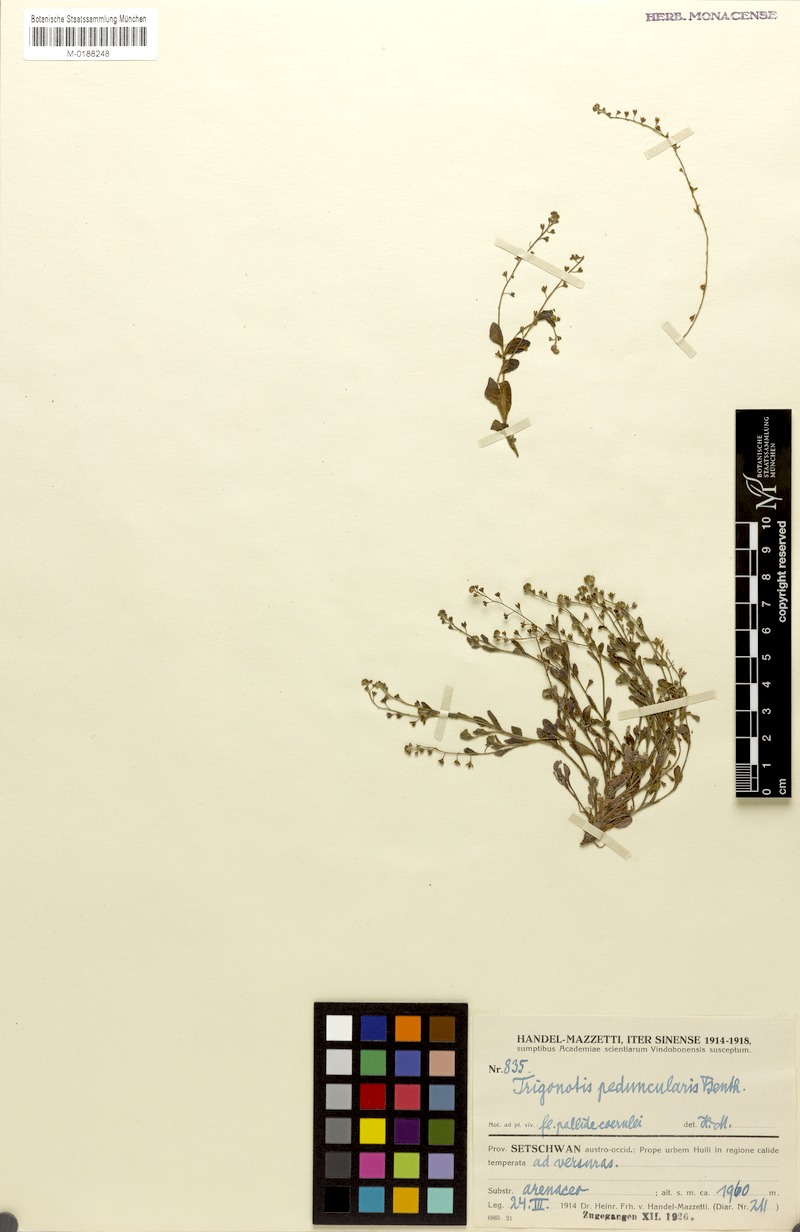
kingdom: Plantae
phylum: Tracheophyta
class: Magnoliopsida
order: Boraginales
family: Boraginaceae
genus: Trigonotis
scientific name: Trigonotis peduncularis
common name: Cucumber herb
